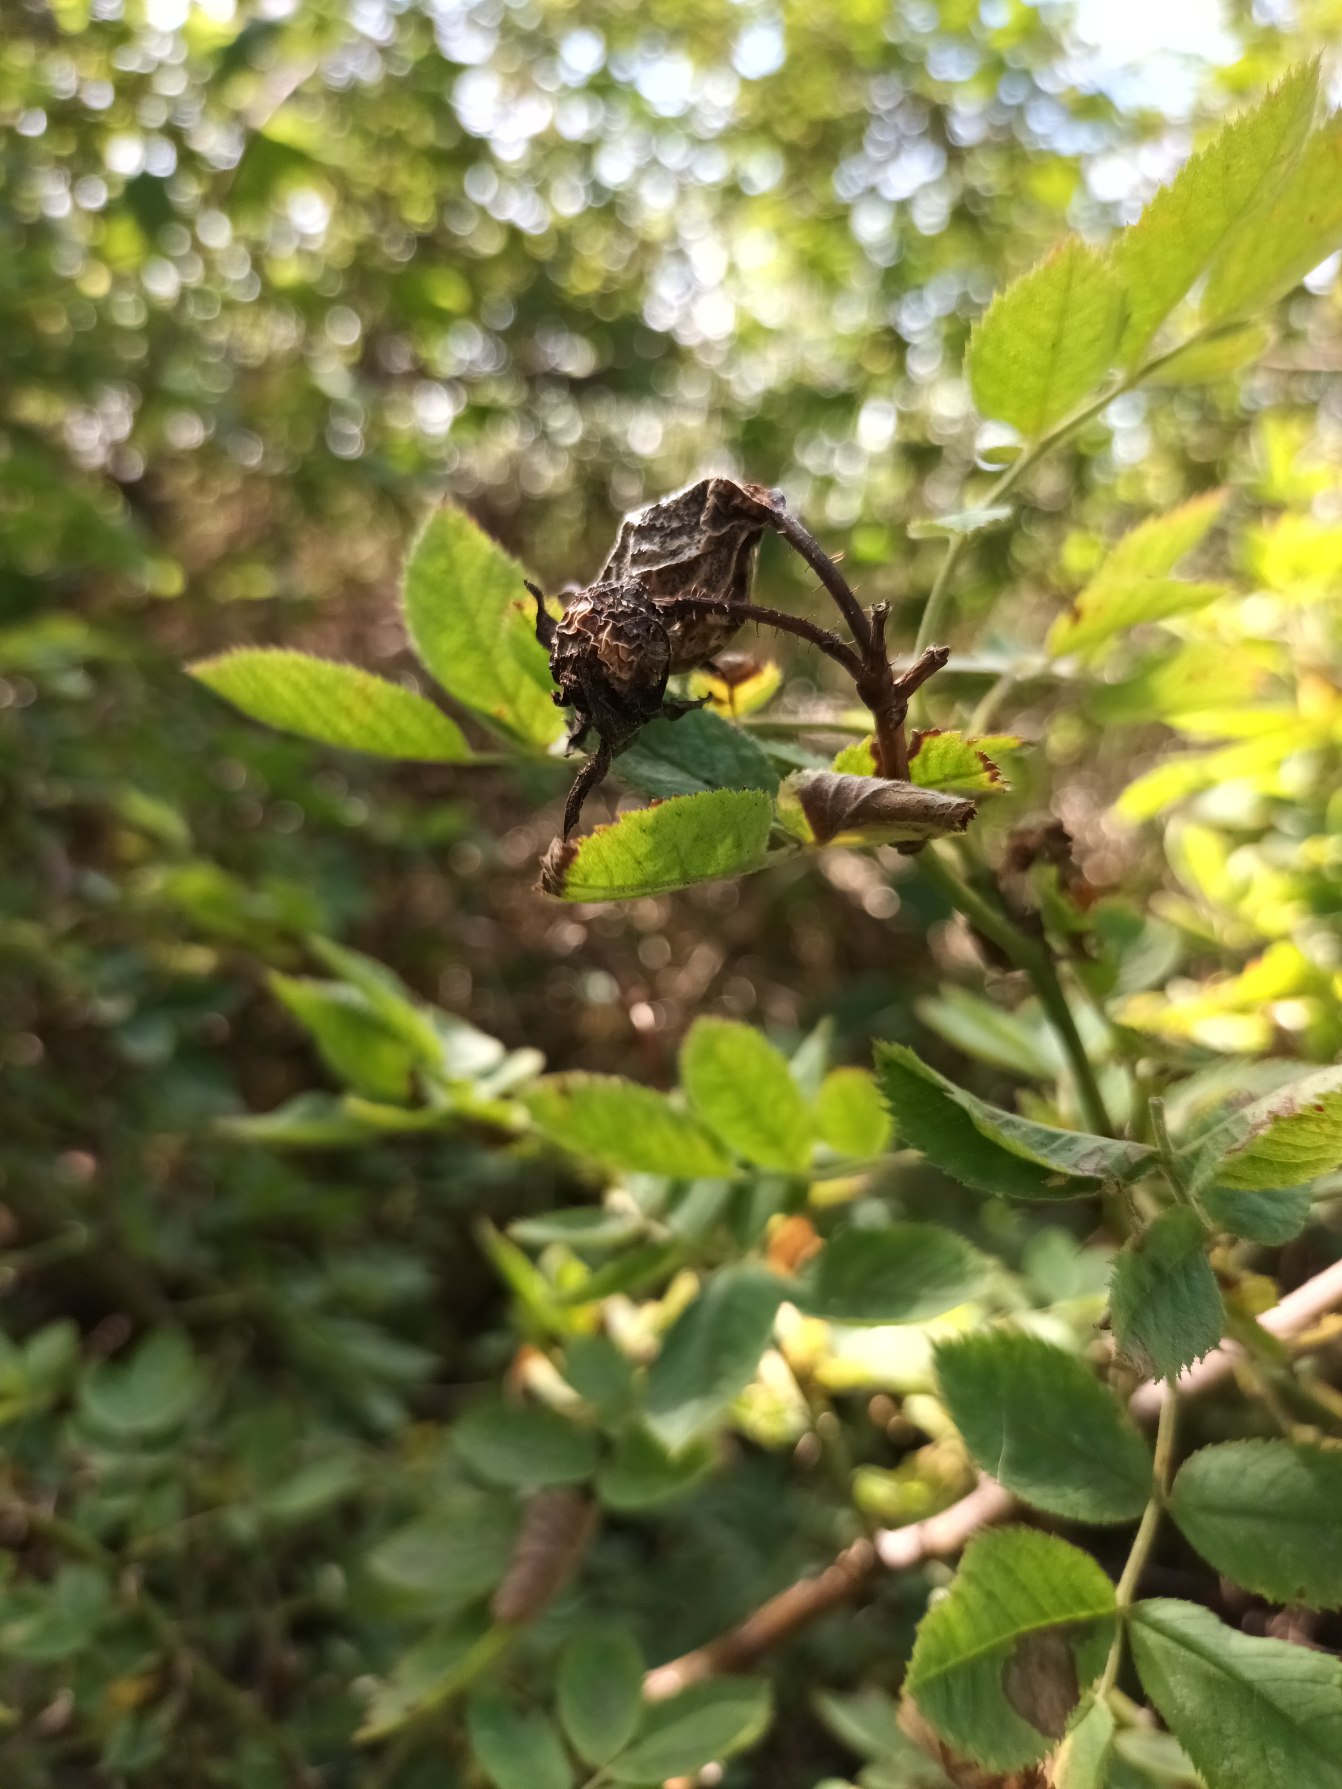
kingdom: Plantae
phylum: Tracheophyta
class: Magnoliopsida
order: Rosales
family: Rosaceae
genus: Rosa
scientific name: Rosa tomentosa
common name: Langstilket filt-rose
